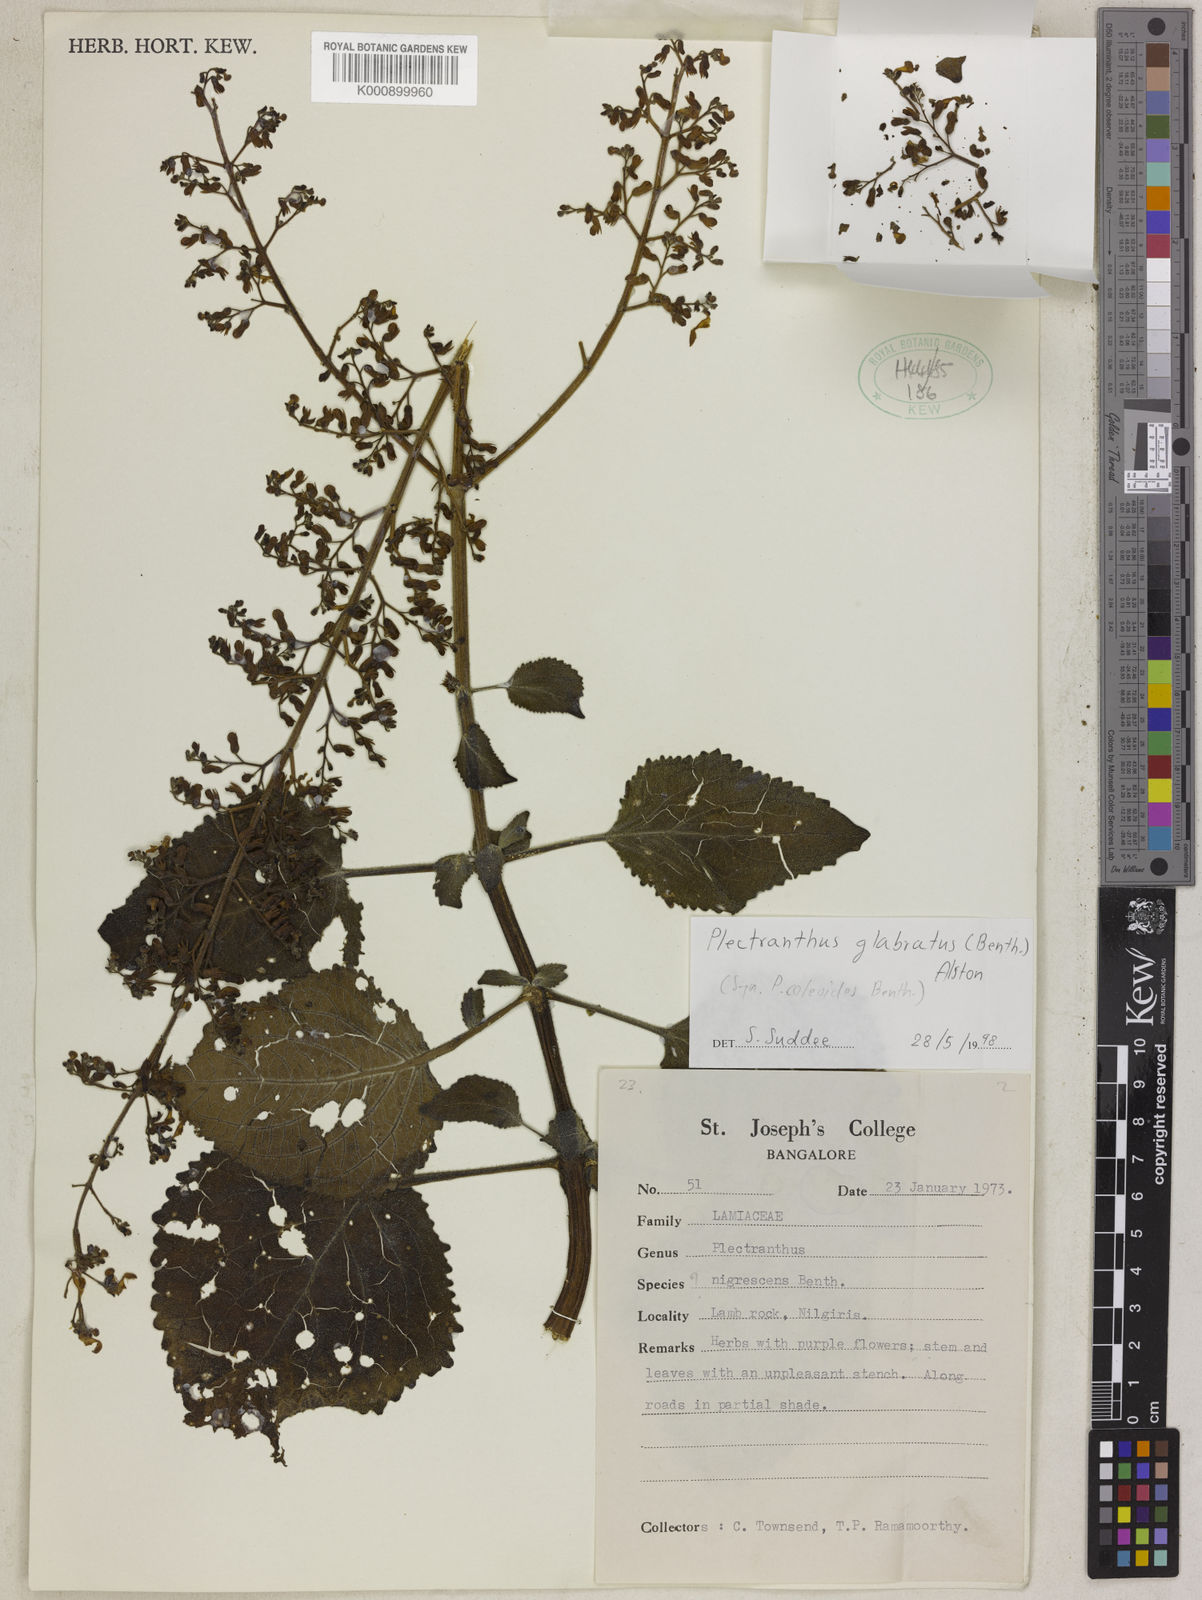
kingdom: Plantae
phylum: Tracheophyta
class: Magnoliopsida
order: Lamiales
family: Lamiaceae
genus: Coleus
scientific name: Coleus paniculatus
